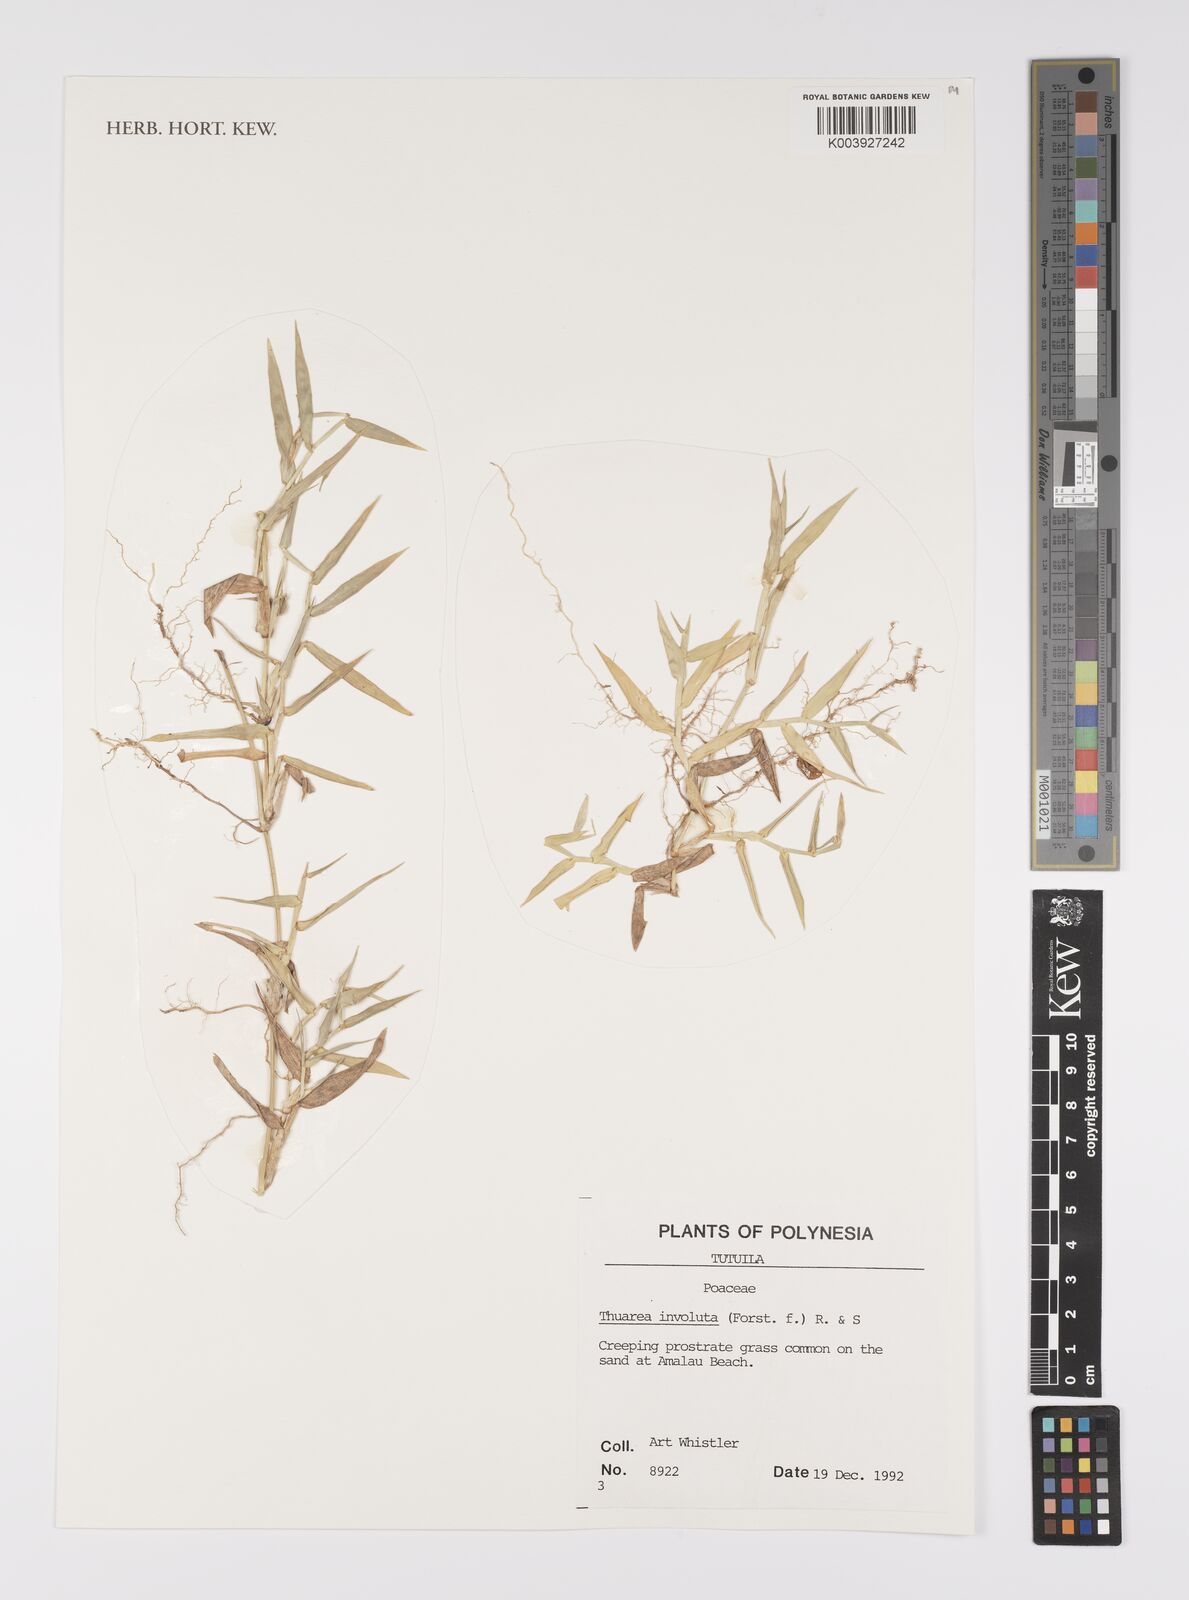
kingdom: Plantae
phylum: Tracheophyta
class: Liliopsida
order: Poales
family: Poaceae
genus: Thuarea
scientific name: Thuarea involuta
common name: Tropical beach grass
